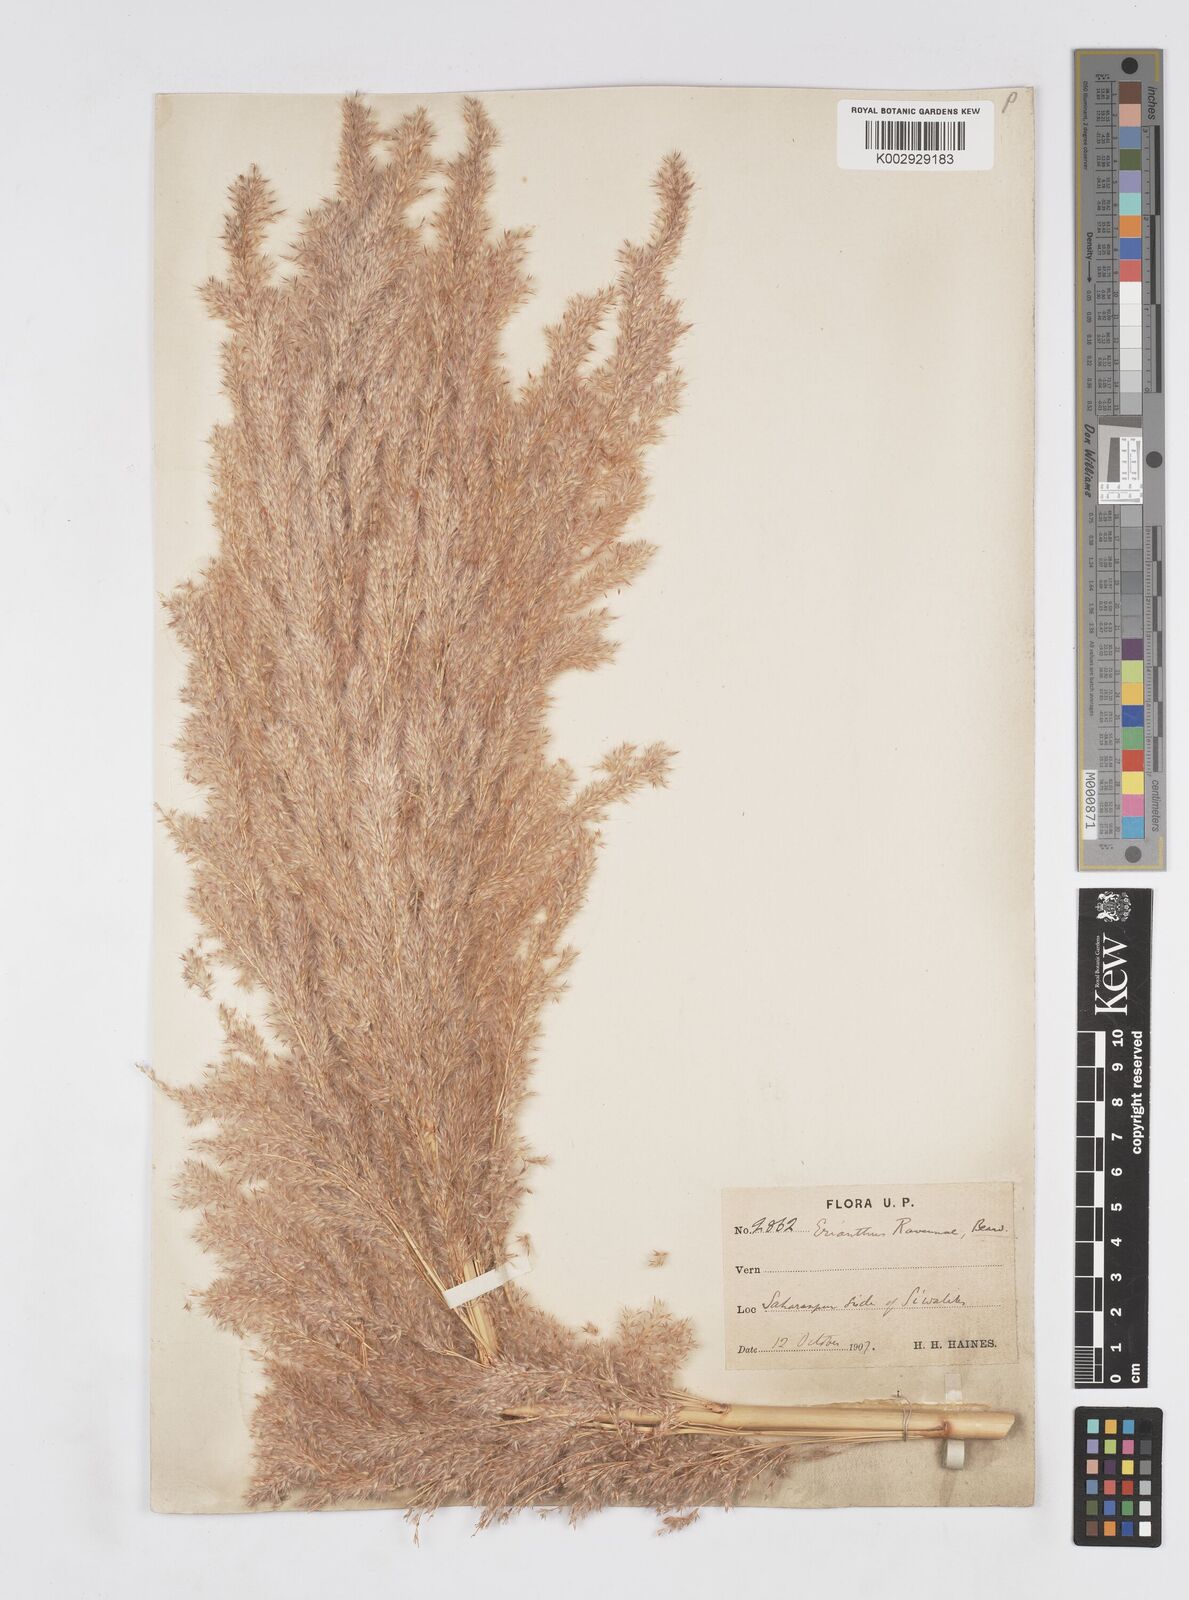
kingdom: Plantae
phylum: Tracheophyta
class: Liliopsida
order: Poales
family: Poaceae
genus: Tripidium
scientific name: Tripidium ravennae
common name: Ravenna grass
